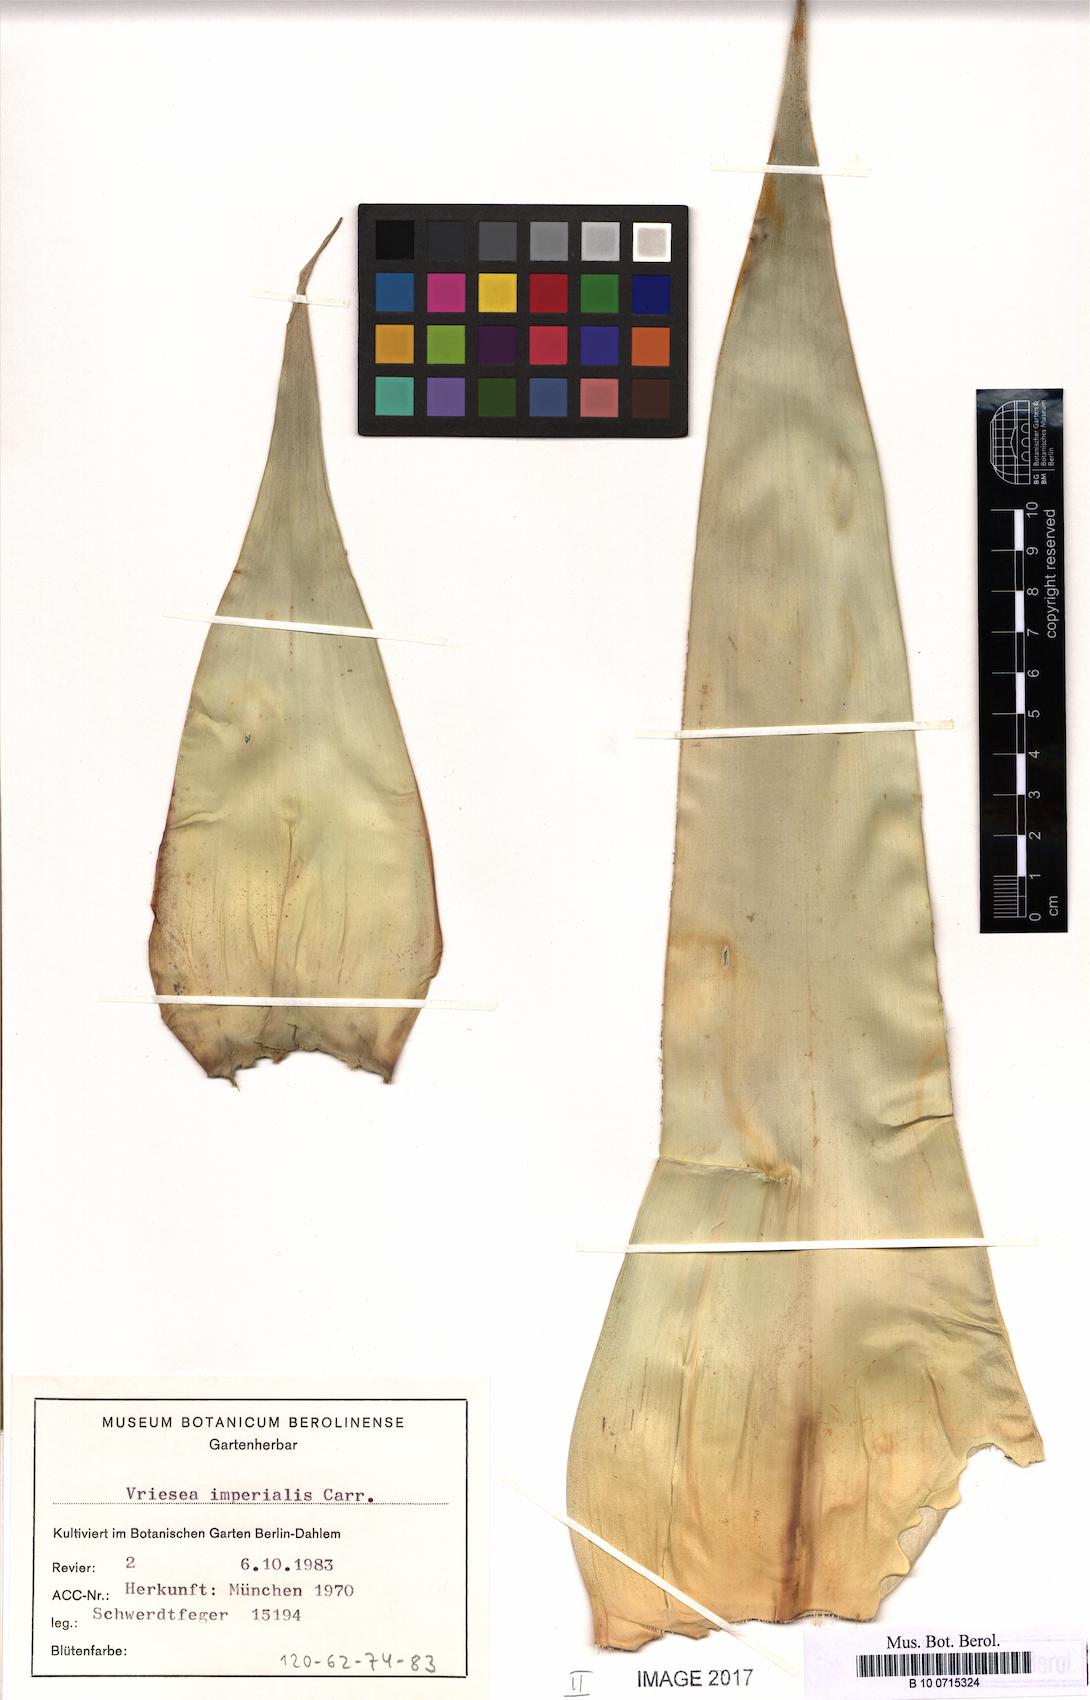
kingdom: Plantae
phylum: Tracheophyta
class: Liliopsida
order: Poales
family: Bromeliaceae
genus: Alcantarea
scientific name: Alcantarea imperialis
